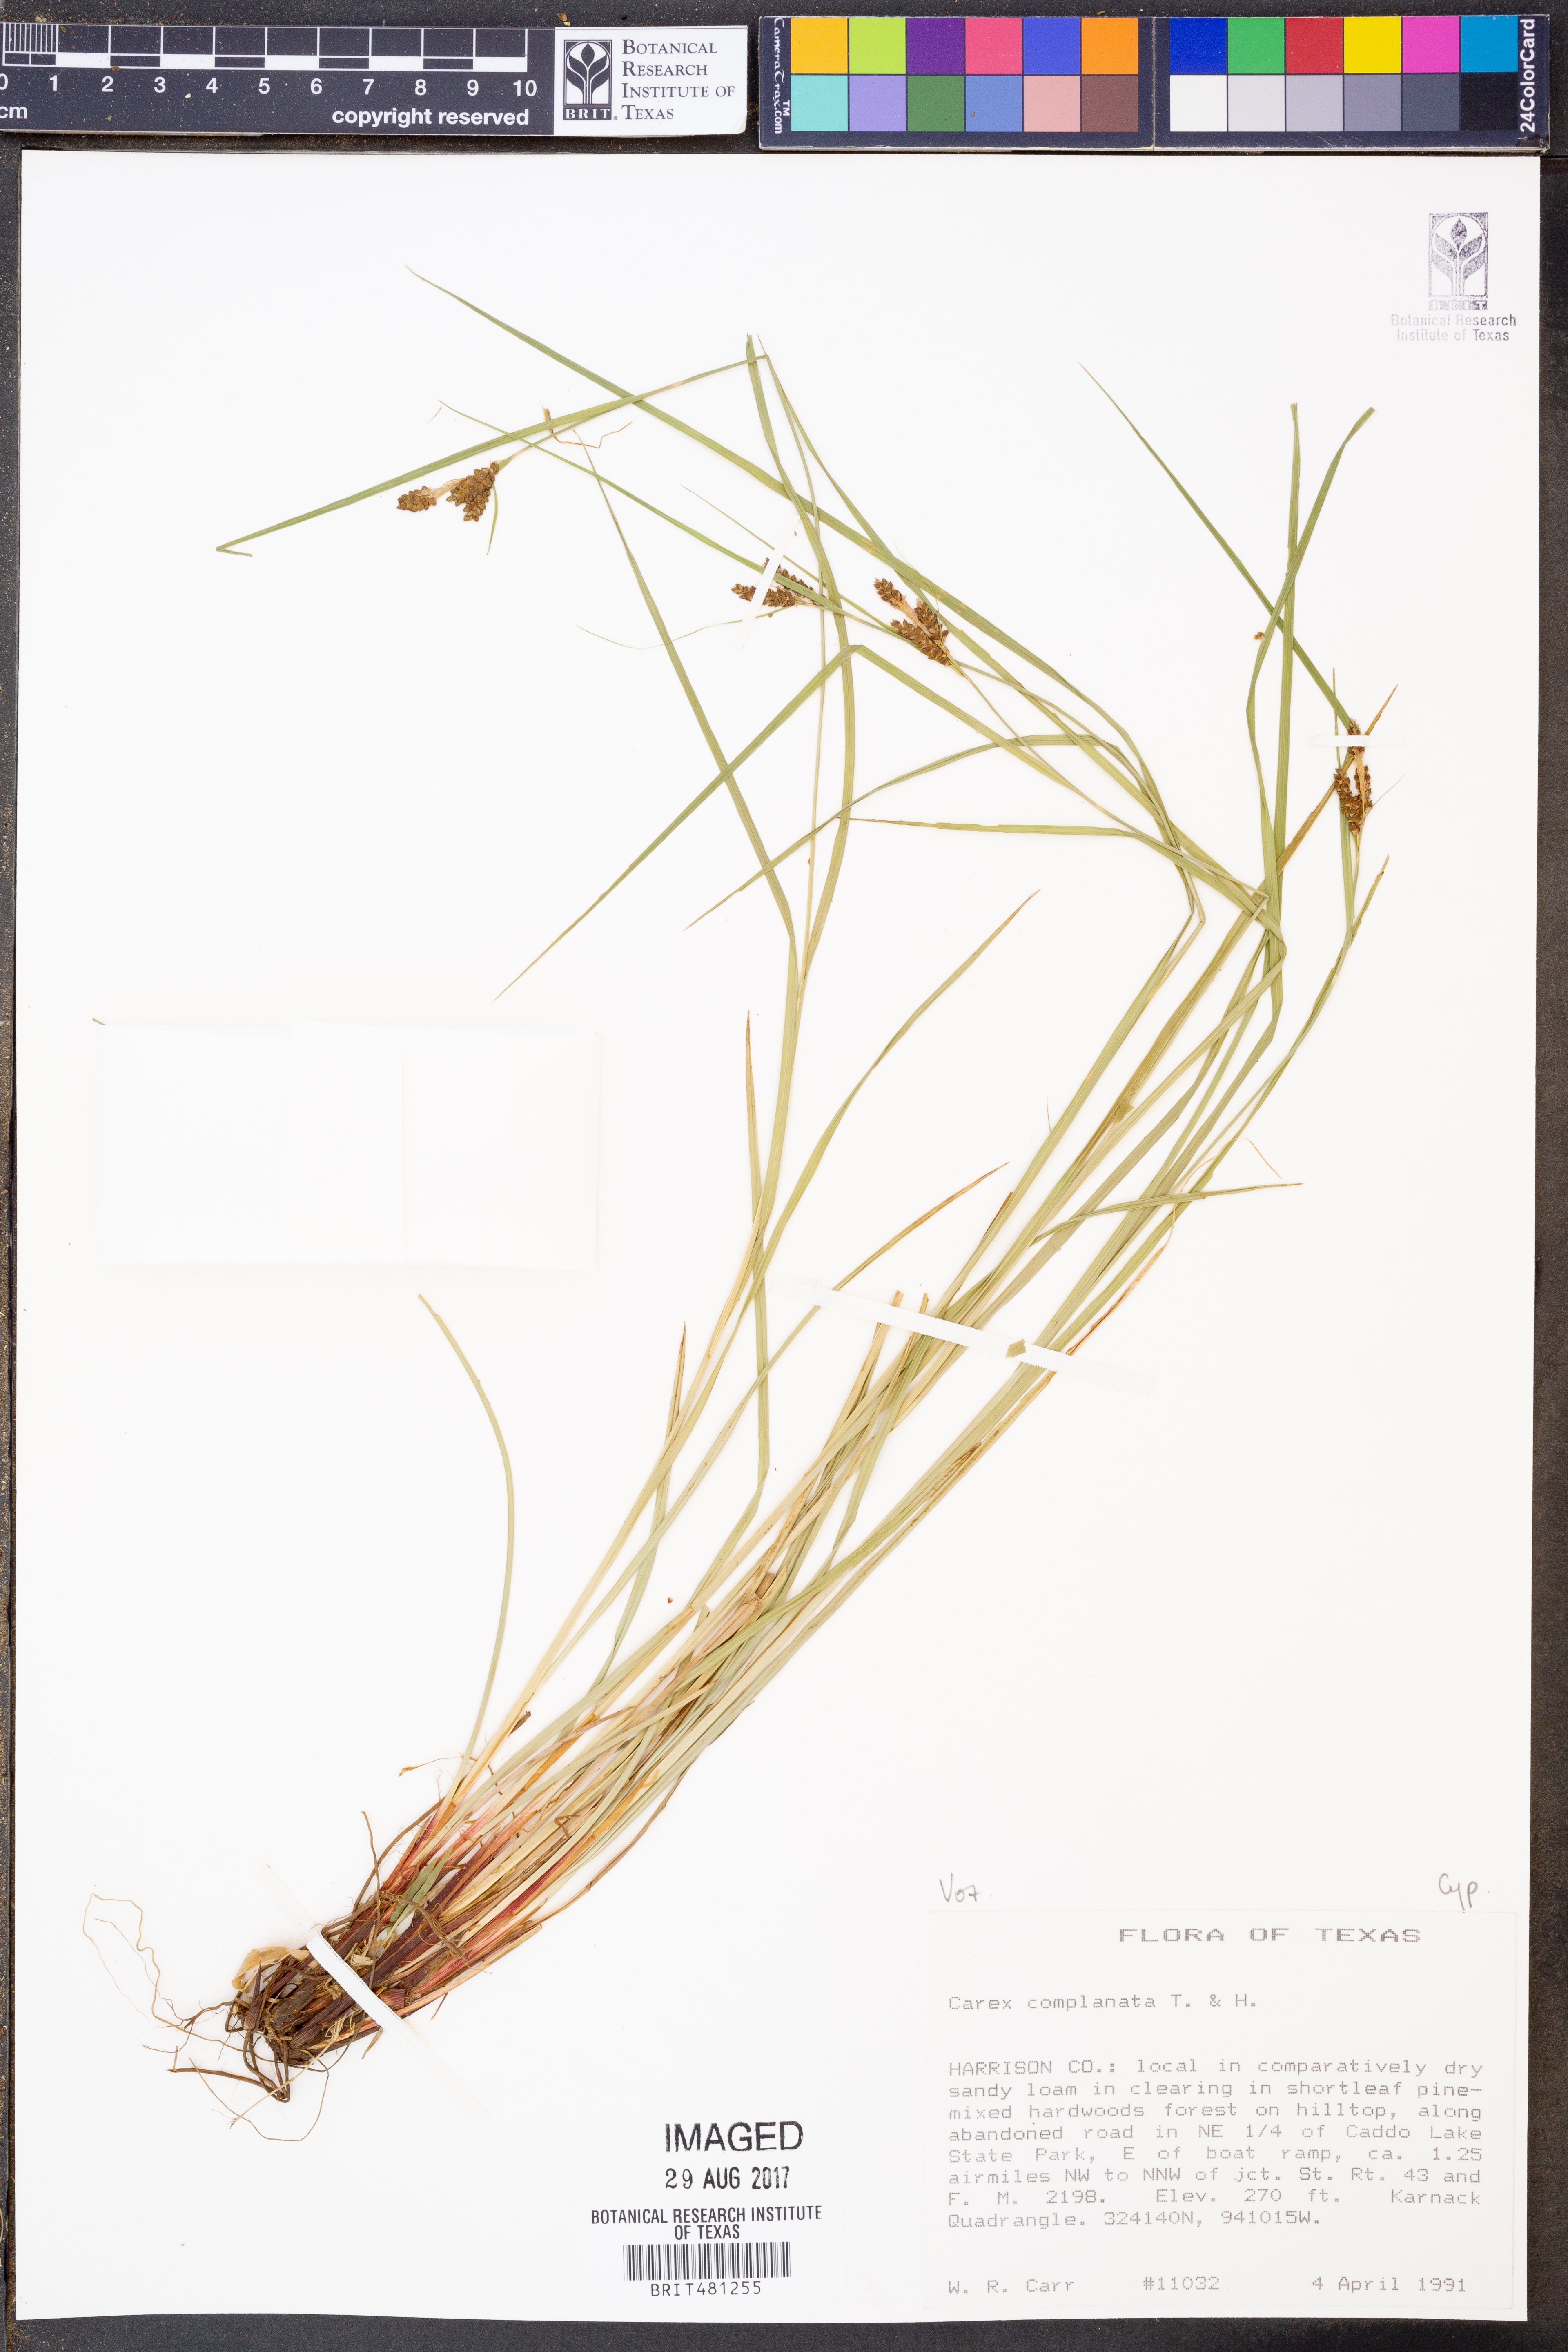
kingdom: Plantae
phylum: Tracheophyta
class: Liliopsida
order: Poales
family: Cyperaceae
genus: Carex
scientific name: Carex complanata
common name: Hirsute sedge
